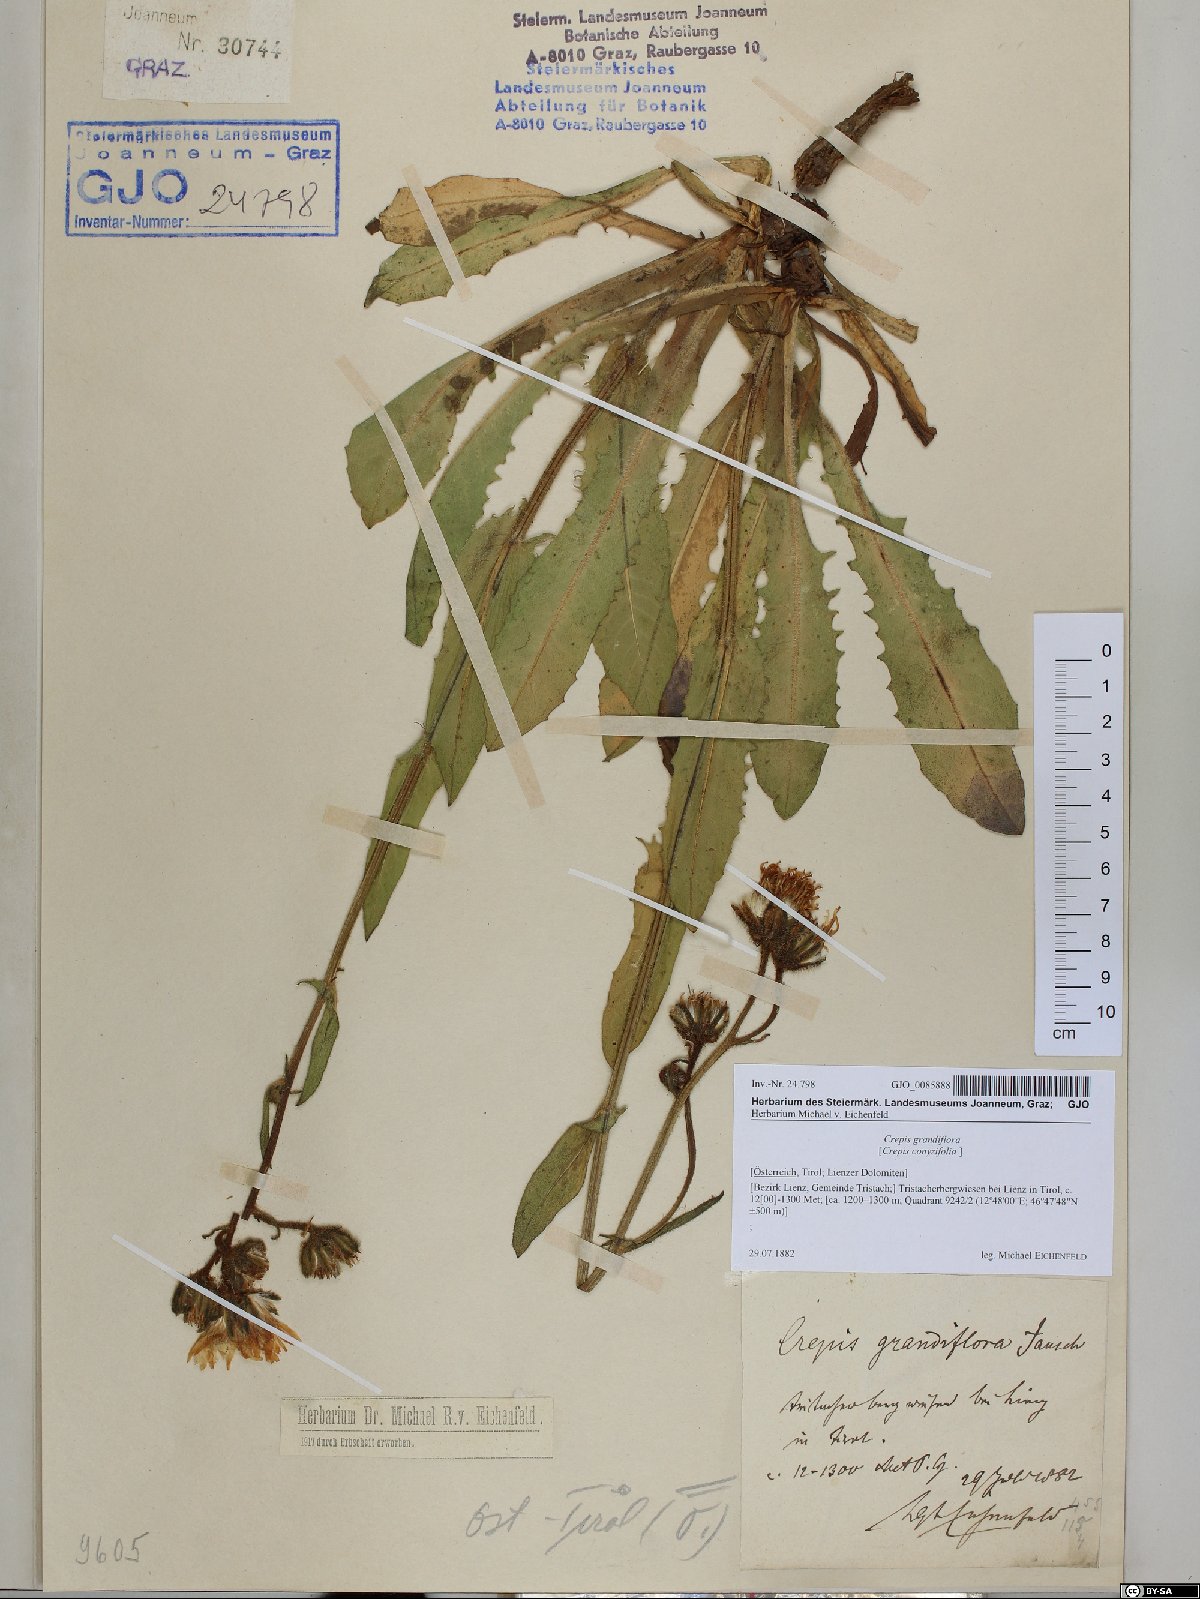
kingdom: Plantae
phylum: Tracheophyta
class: Magnoliopsida
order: Asterales
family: Asteraceae
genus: Crepis
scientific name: Crepis pyrenaica
